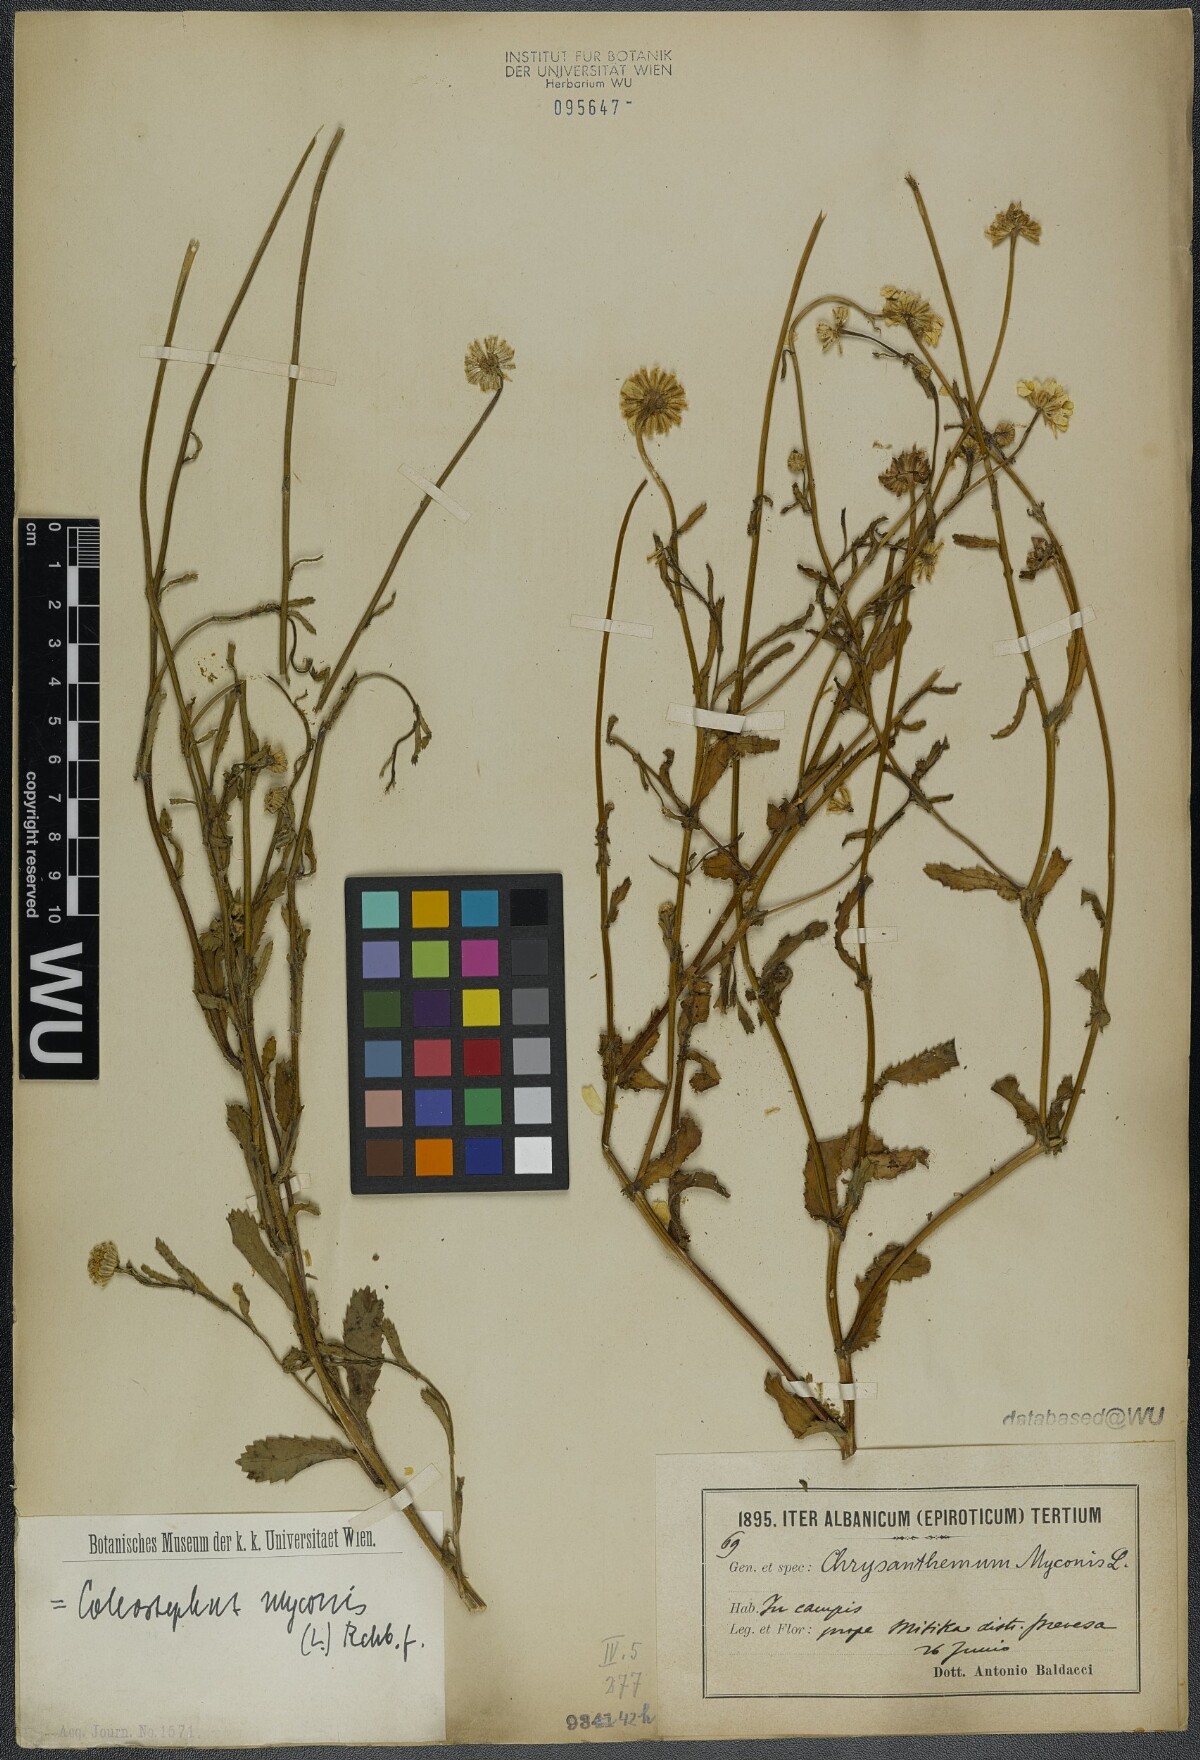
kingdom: Plantae
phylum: Tracheophyta
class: Magnoliopsida
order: Asterales
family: Asteraceae
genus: Coleostephus
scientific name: Coleostephus myconis
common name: Mediterranean marigold
